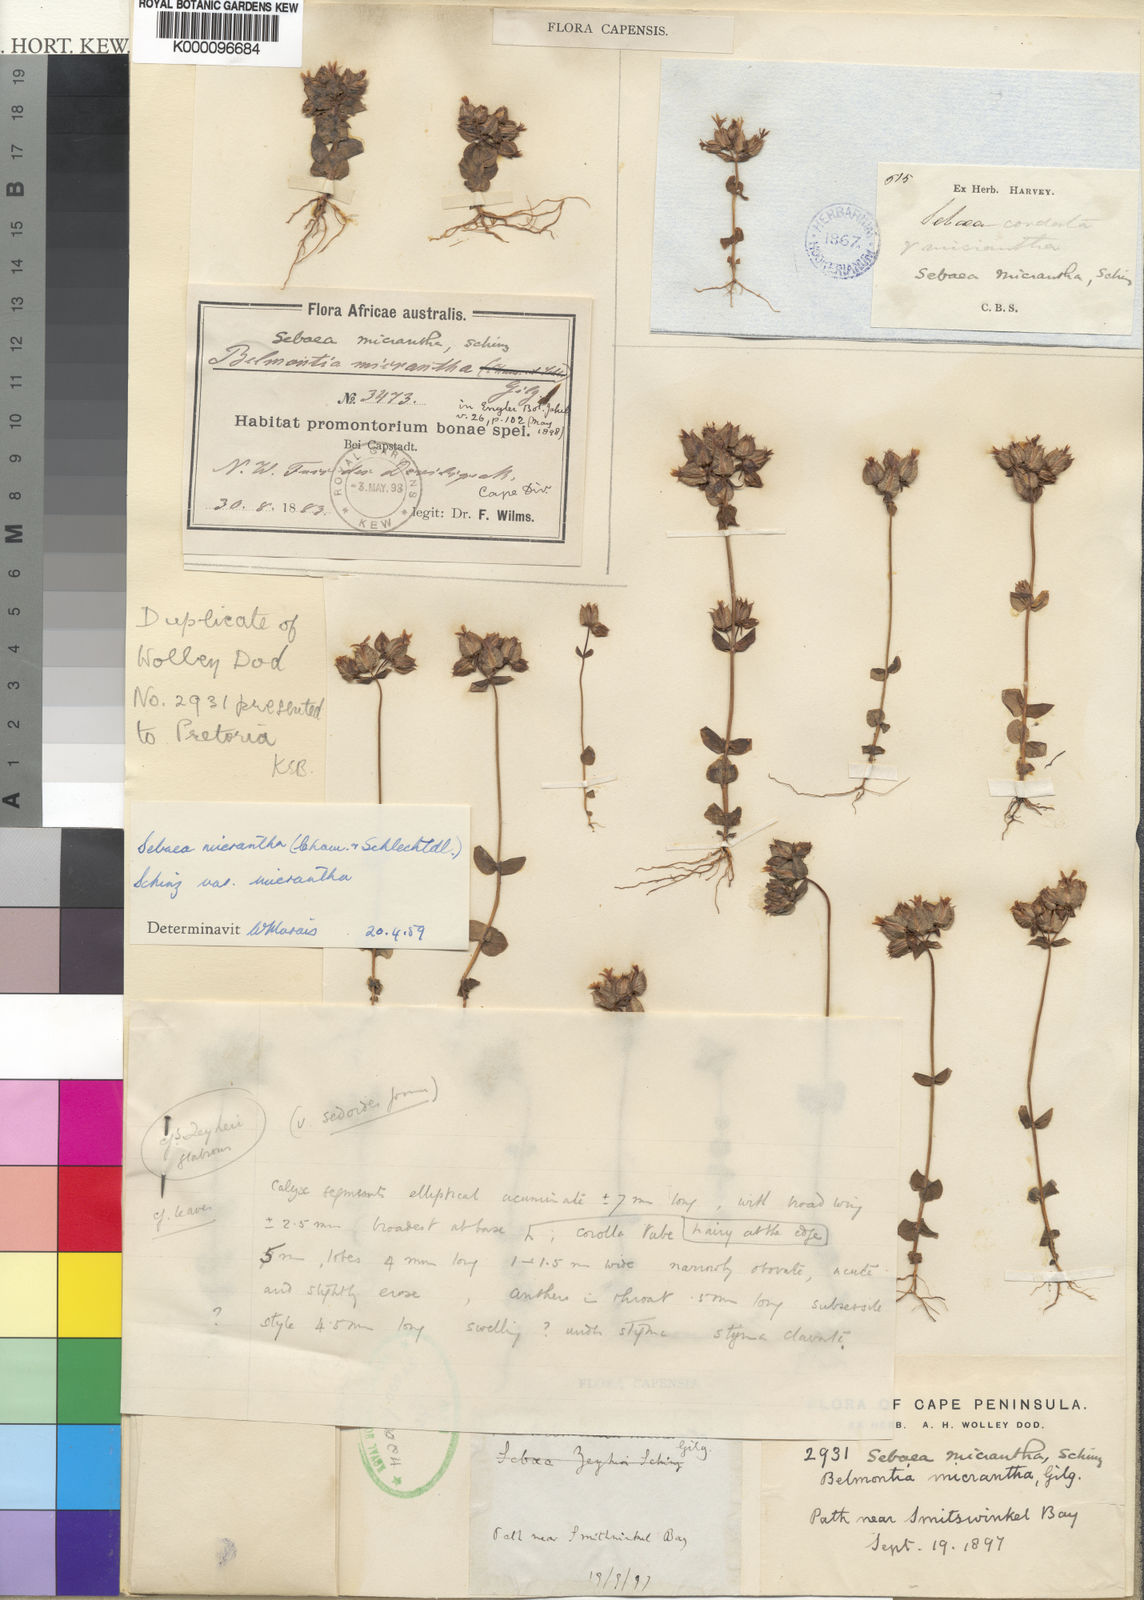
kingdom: Plantae
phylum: Tracheophyta
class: Magnoliopsida
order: Gentianales
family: Gentianaceae
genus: Sebaea
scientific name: Sebaea micrantha
